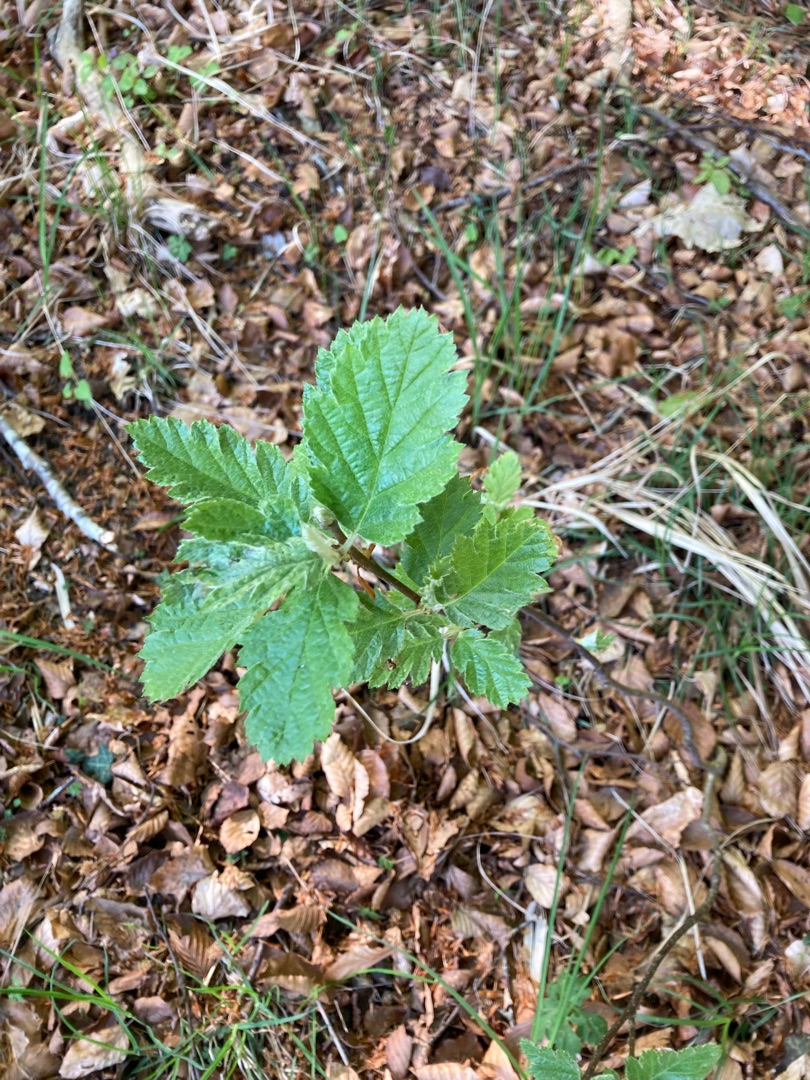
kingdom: Plantae
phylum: Tracheophyta
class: Magnoliopsida
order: Rosales
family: Rosaceae
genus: Scandosorbus
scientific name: Scandosorbus intermedia
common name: Selje-røn
